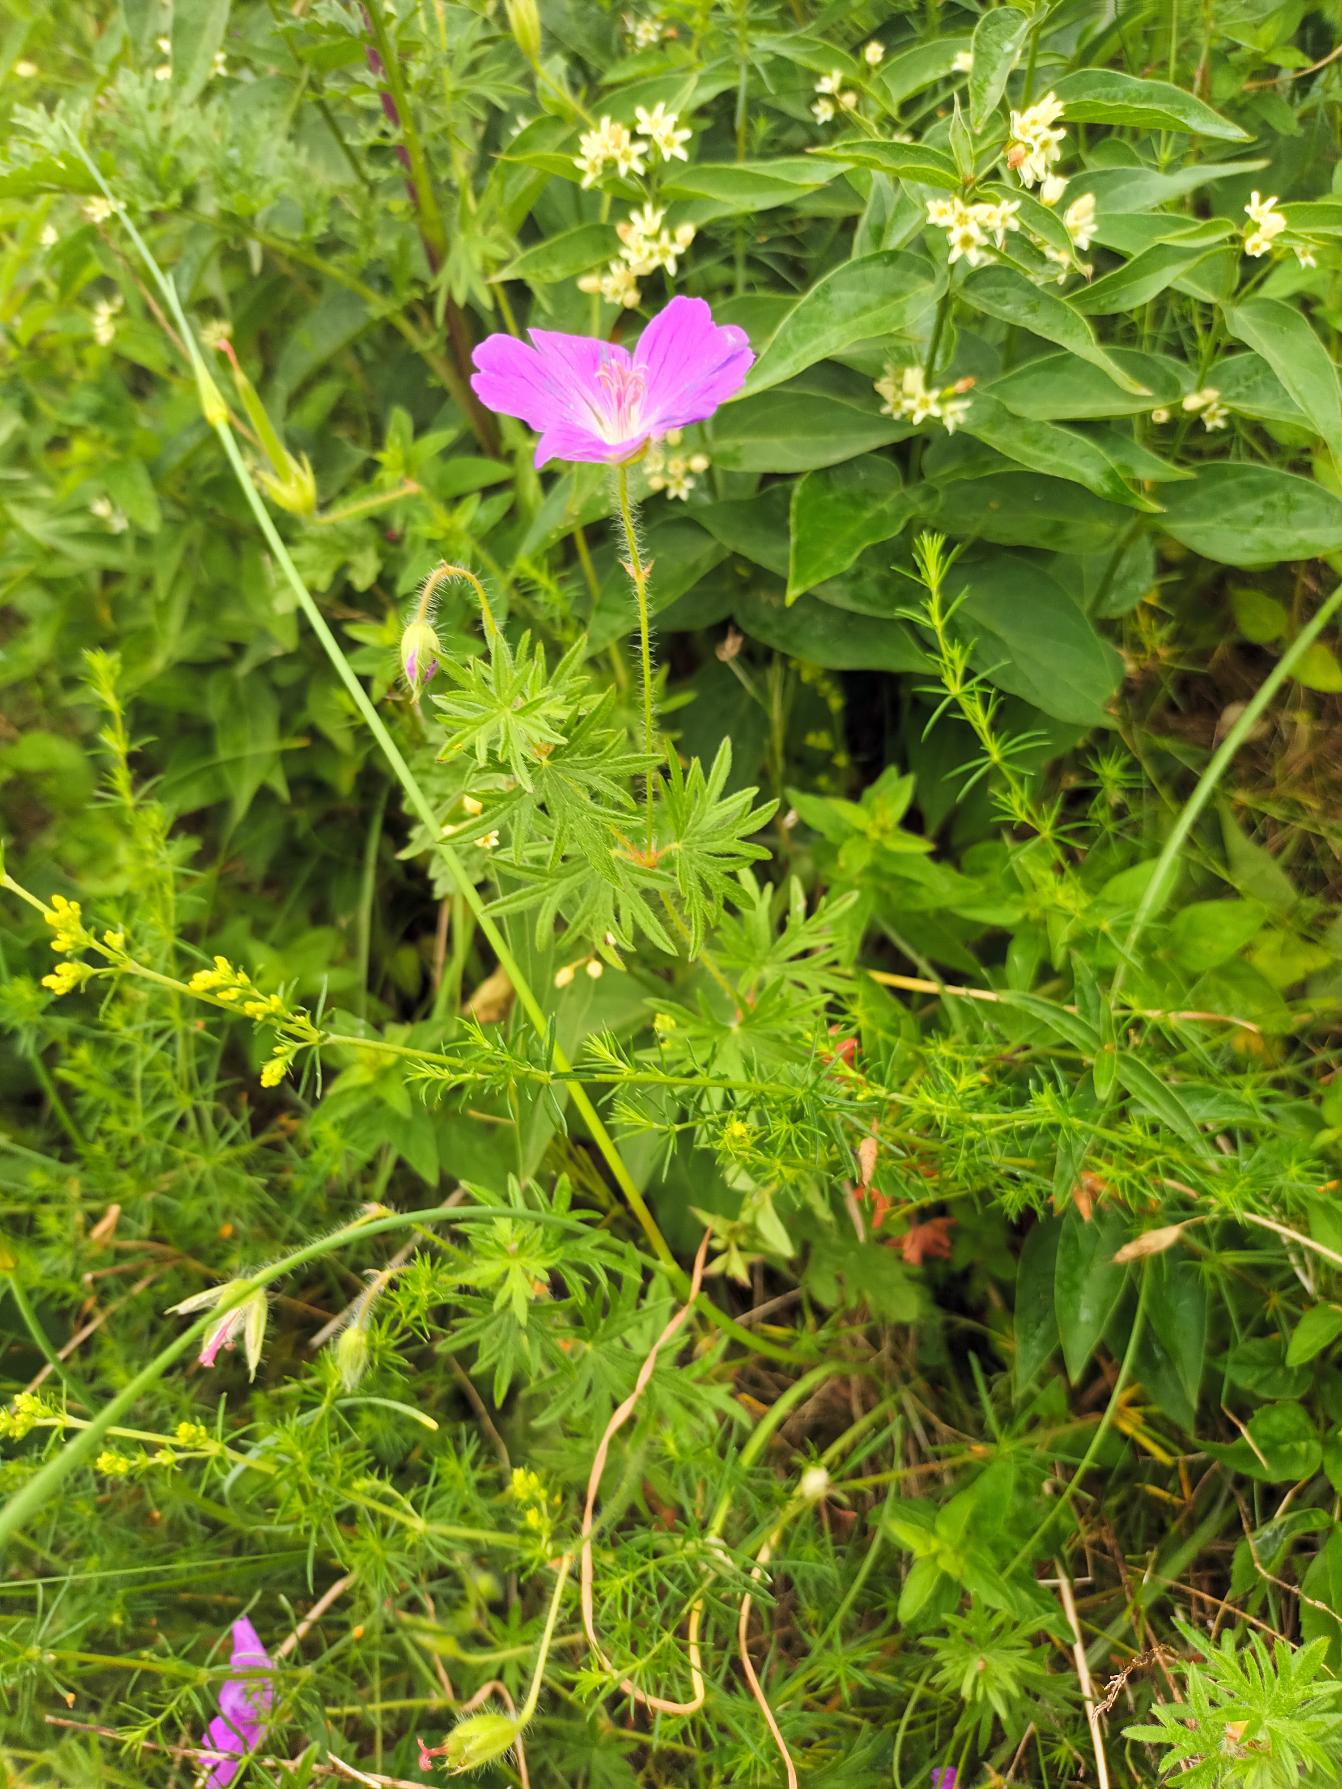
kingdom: Plantae
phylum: Tracheophyta
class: Magnoliopsida
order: Geraniales
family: Geraniaceae
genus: Geranium
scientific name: Geranium sanguineum
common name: Blodrød storkenæb
